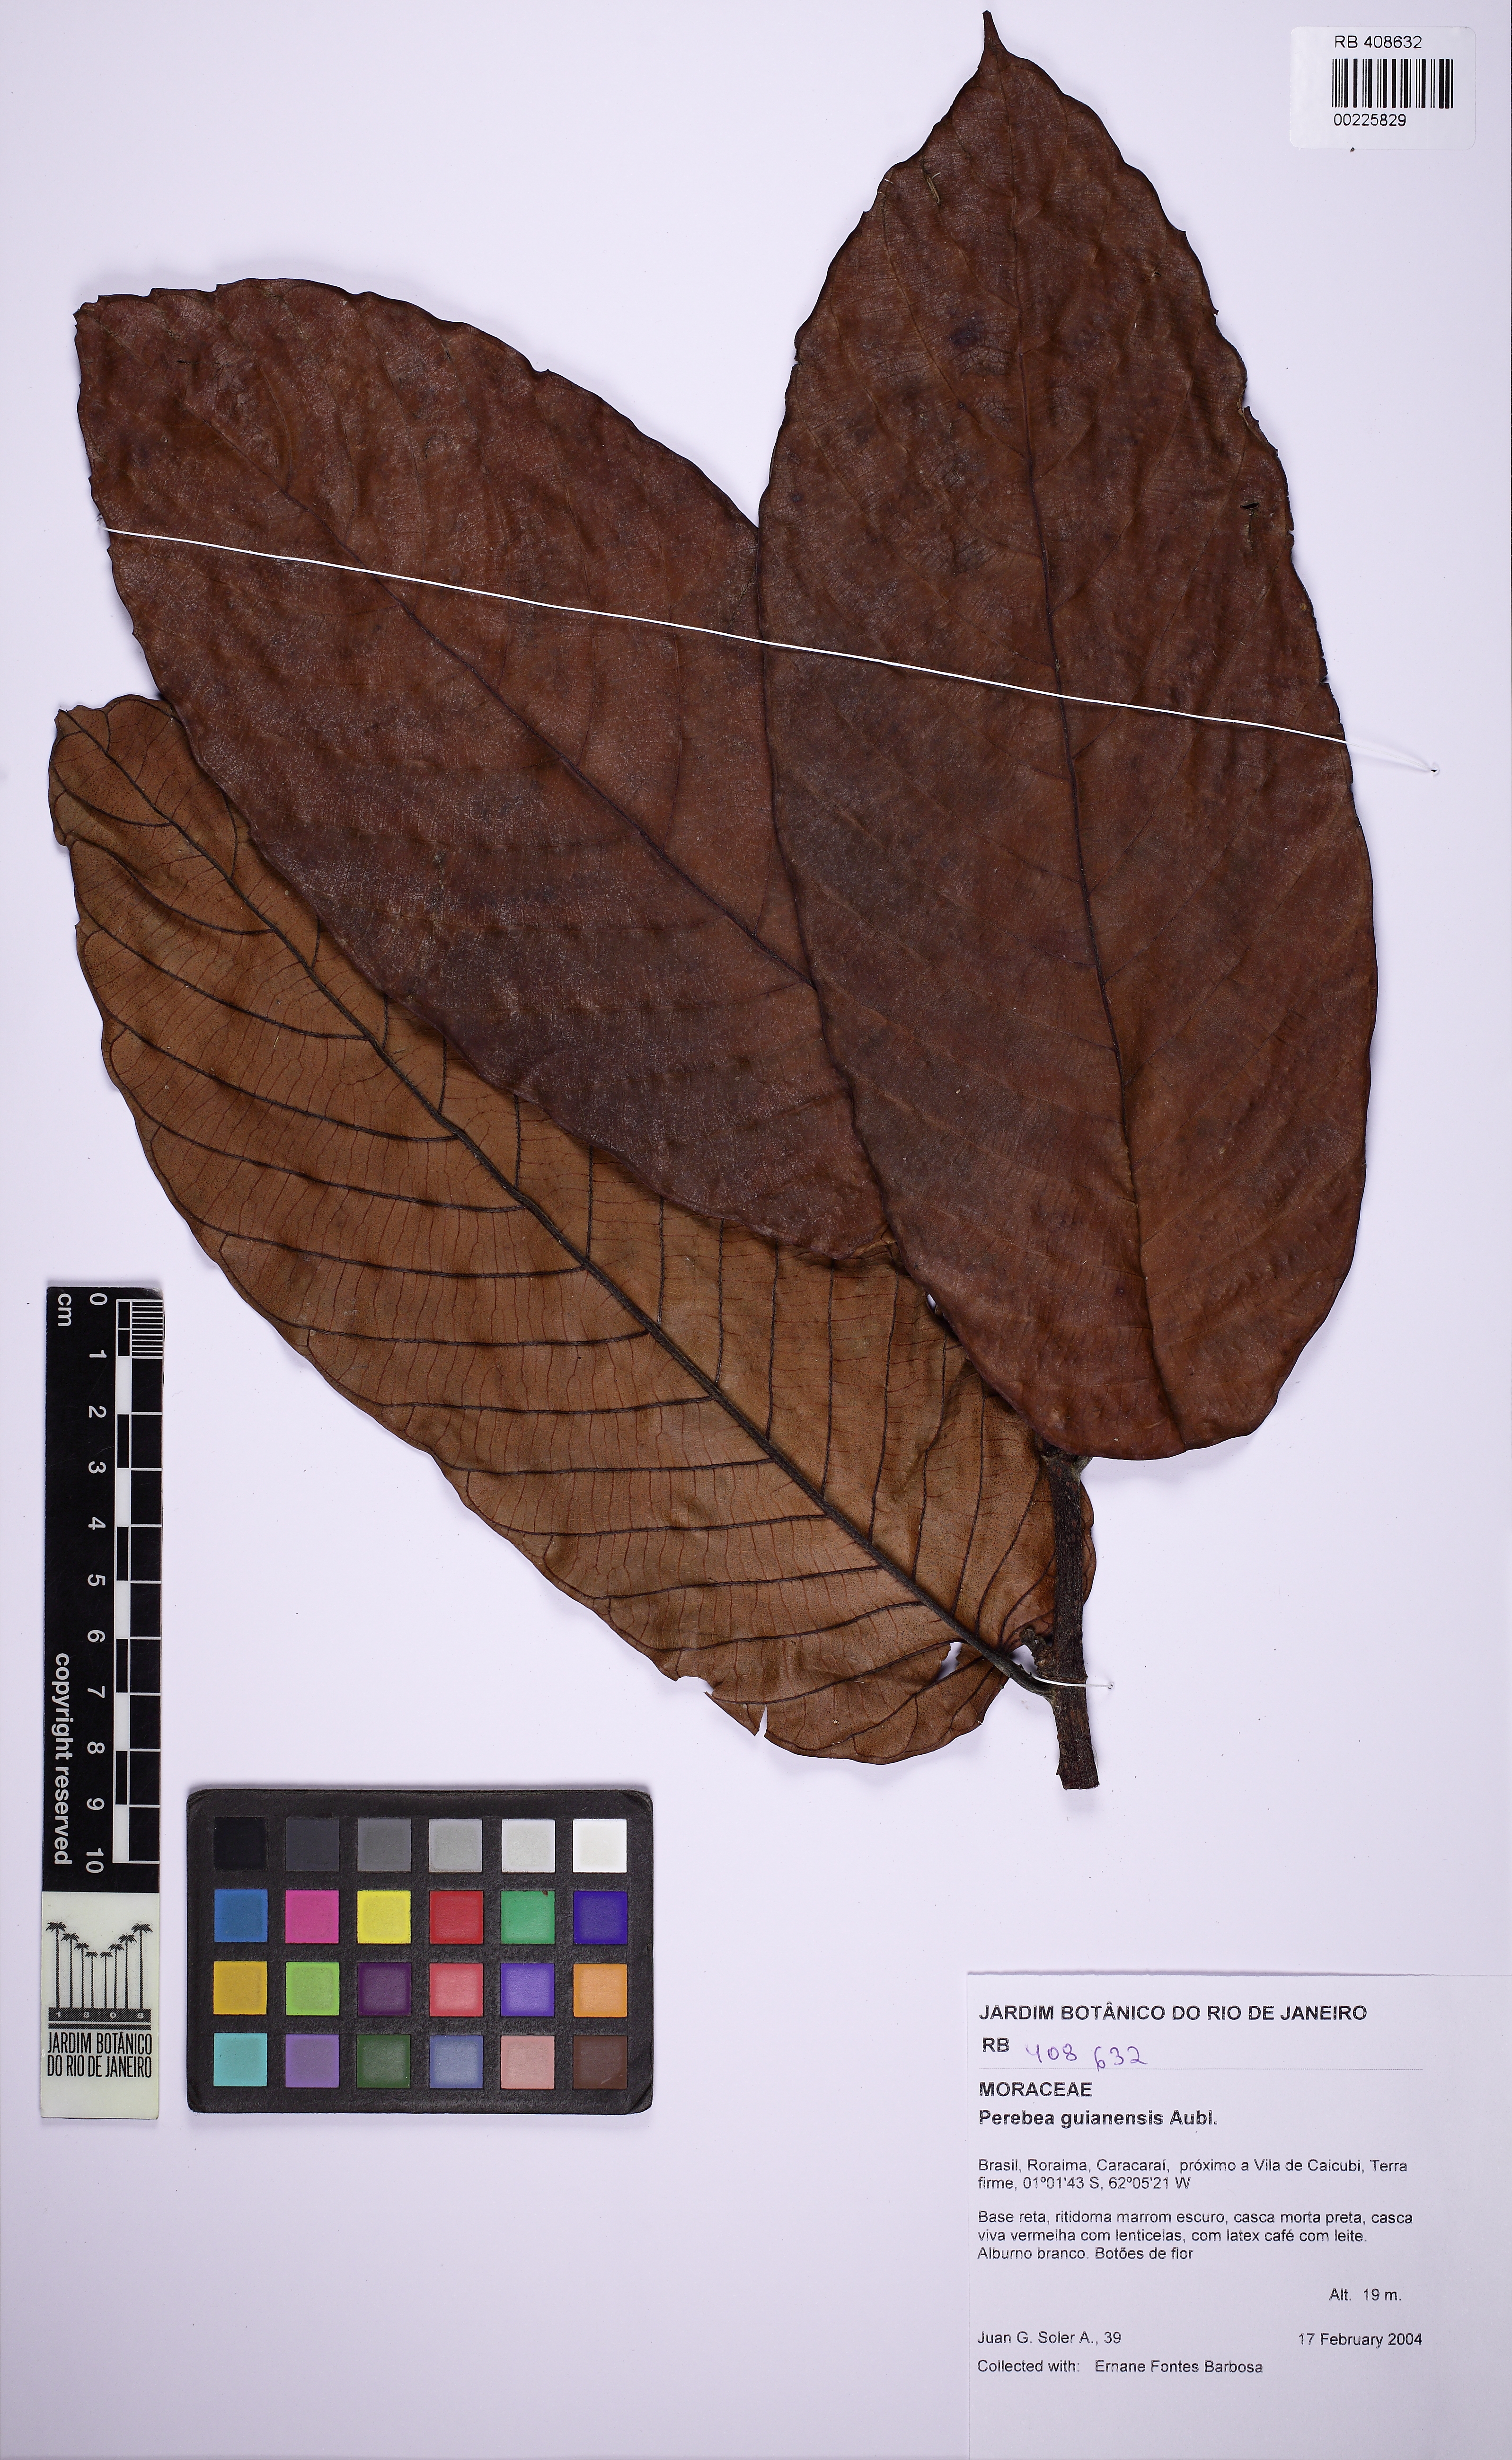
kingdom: Plantae
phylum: Tracheophyta
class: Magnoliopsida
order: Rosales
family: Moraceae
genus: Perebea
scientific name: Perebea guianensis
